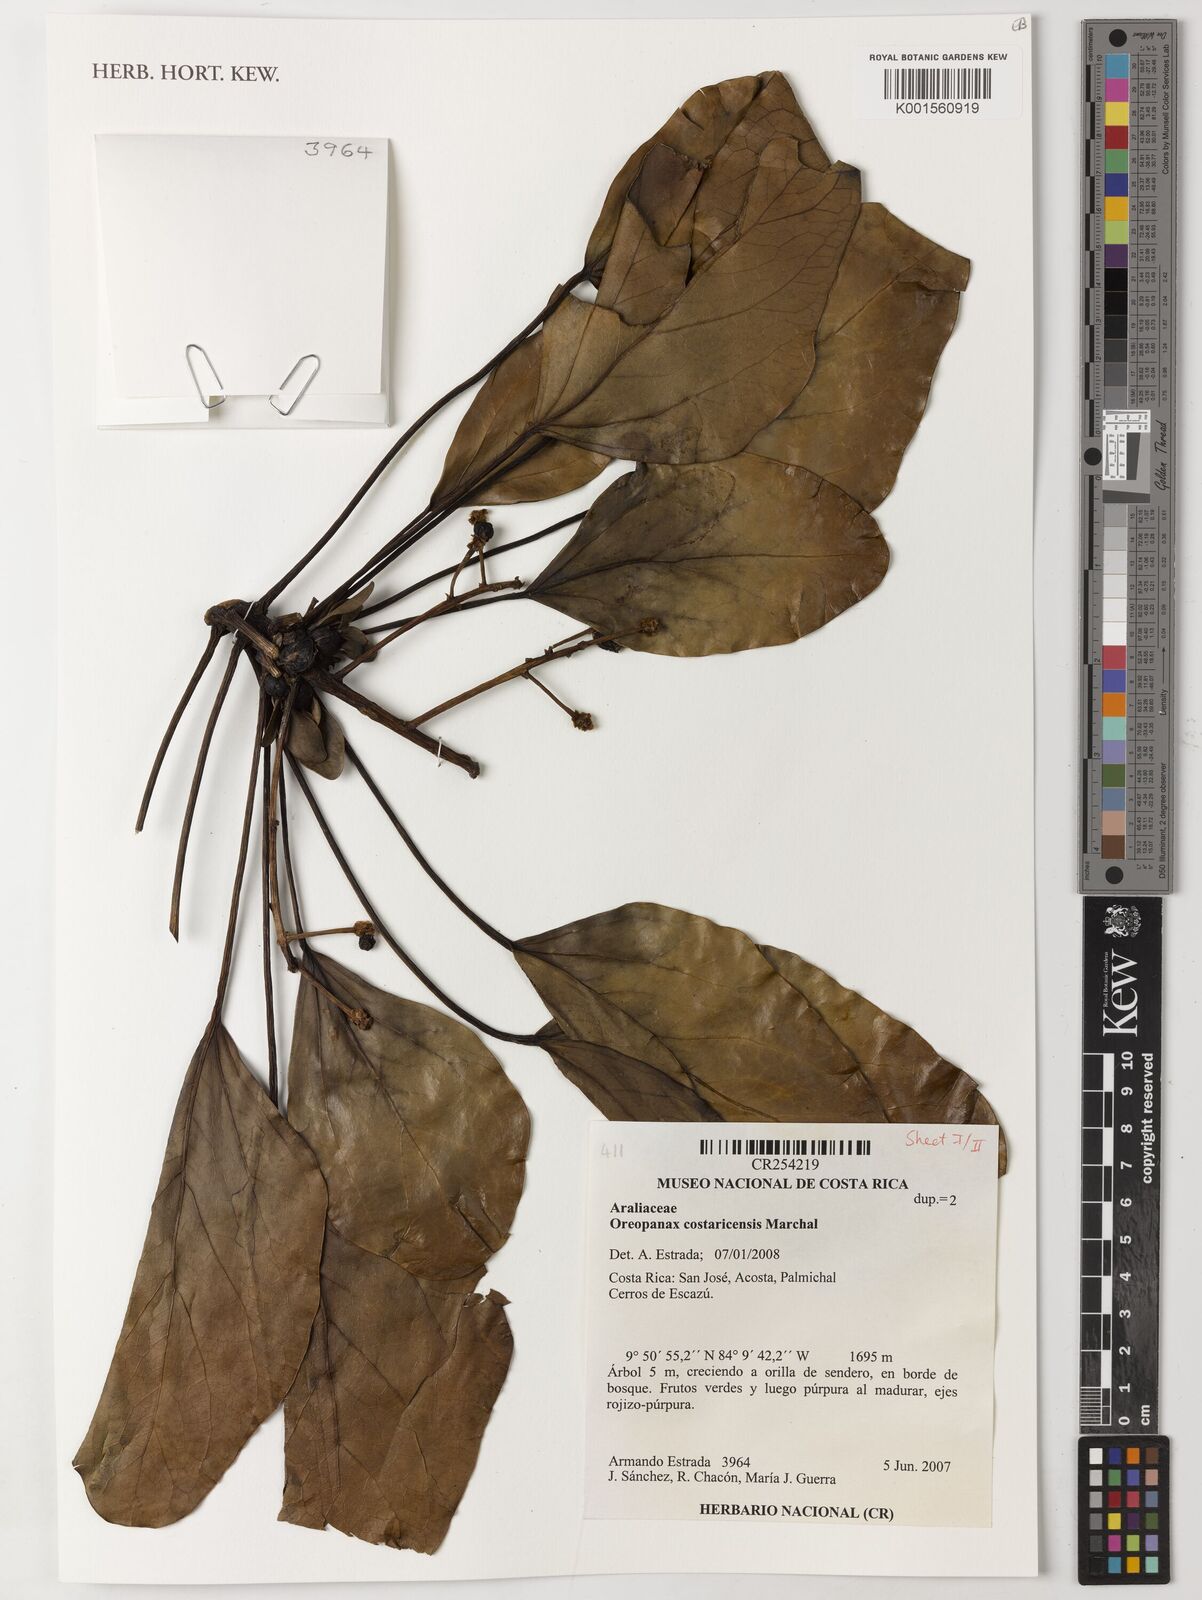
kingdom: Plantae
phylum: Tracheophyta
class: Magnoliopsida
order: Apiales
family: Araliaceae
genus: Oreopanax
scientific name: Oreopanax costaricensis
